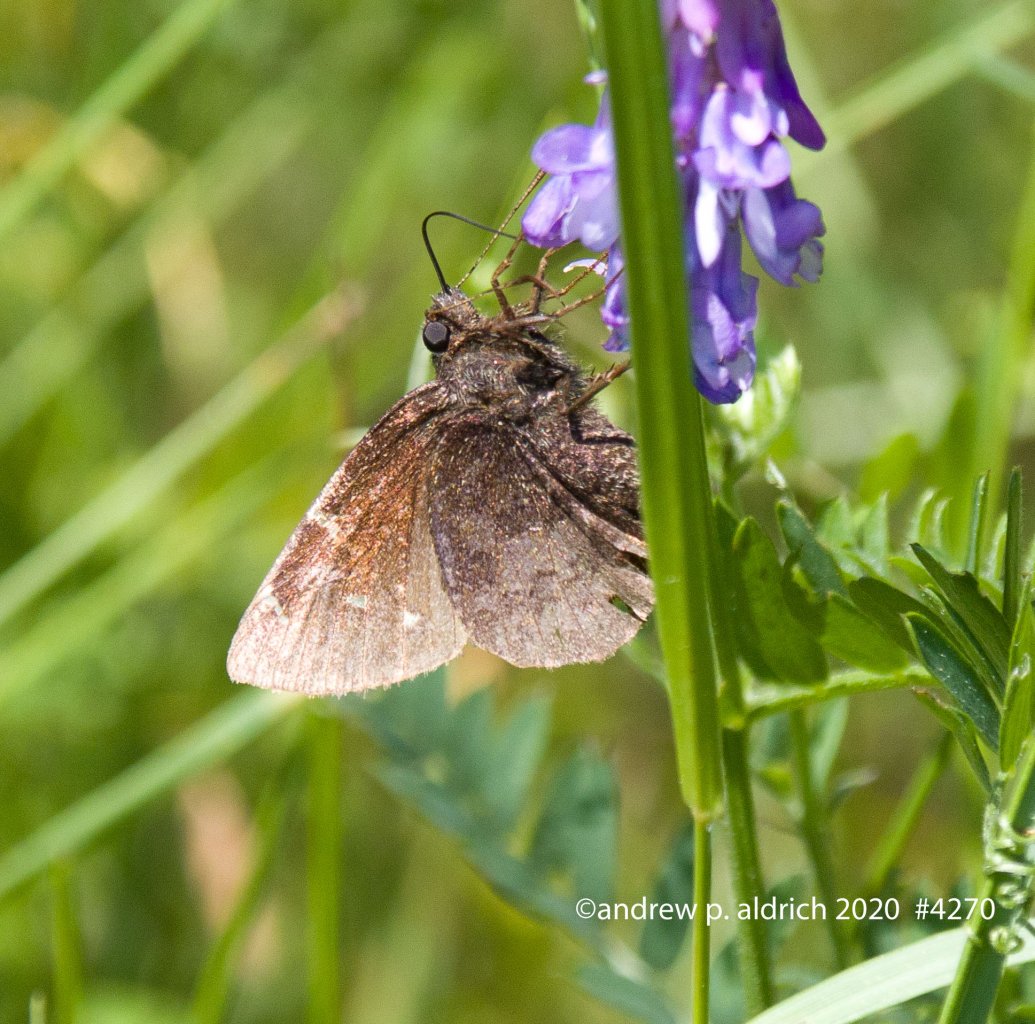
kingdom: Animalia
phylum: Arthropoda
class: Insecta
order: Lepidoptera
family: Hesperiidae
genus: Autochton
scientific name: Autochton
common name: Northern Cloudywing
